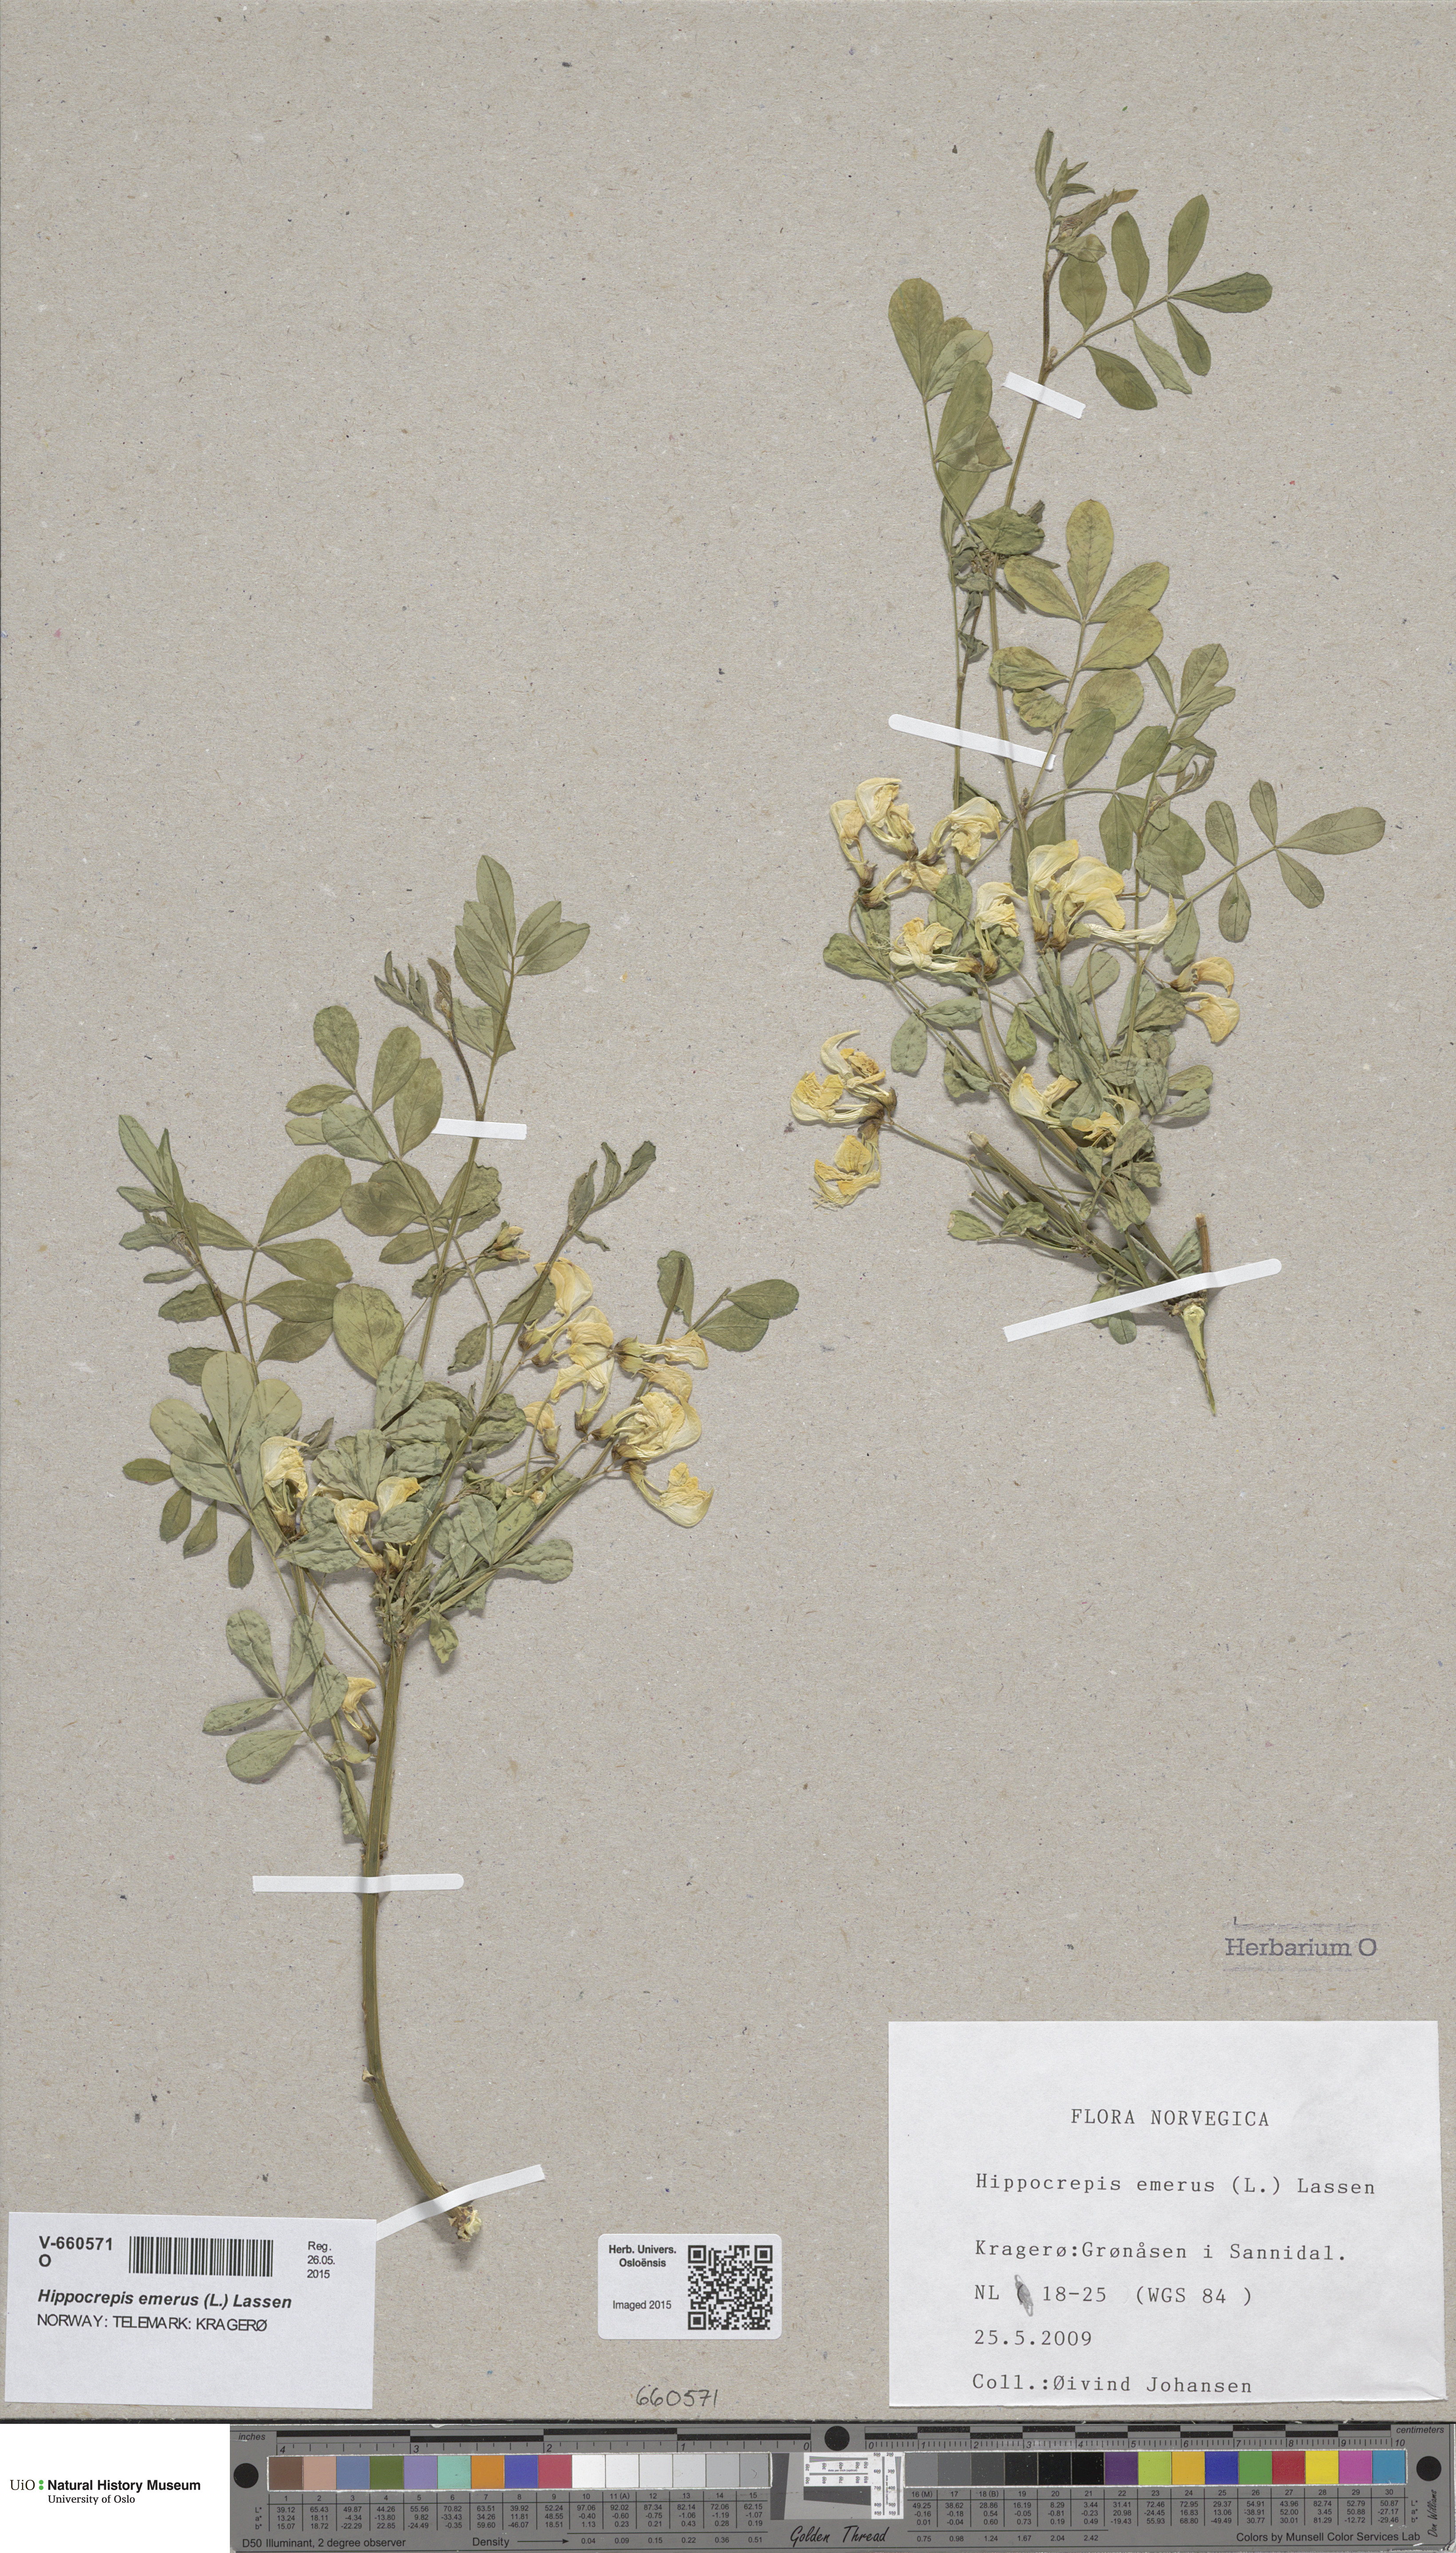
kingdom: Plantae
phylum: Tracheophyta
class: Magnoliopsida
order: Fabales
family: Fabaceae
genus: Hippocrepis
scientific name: Hippocrepis emerus
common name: Scorpion senna
